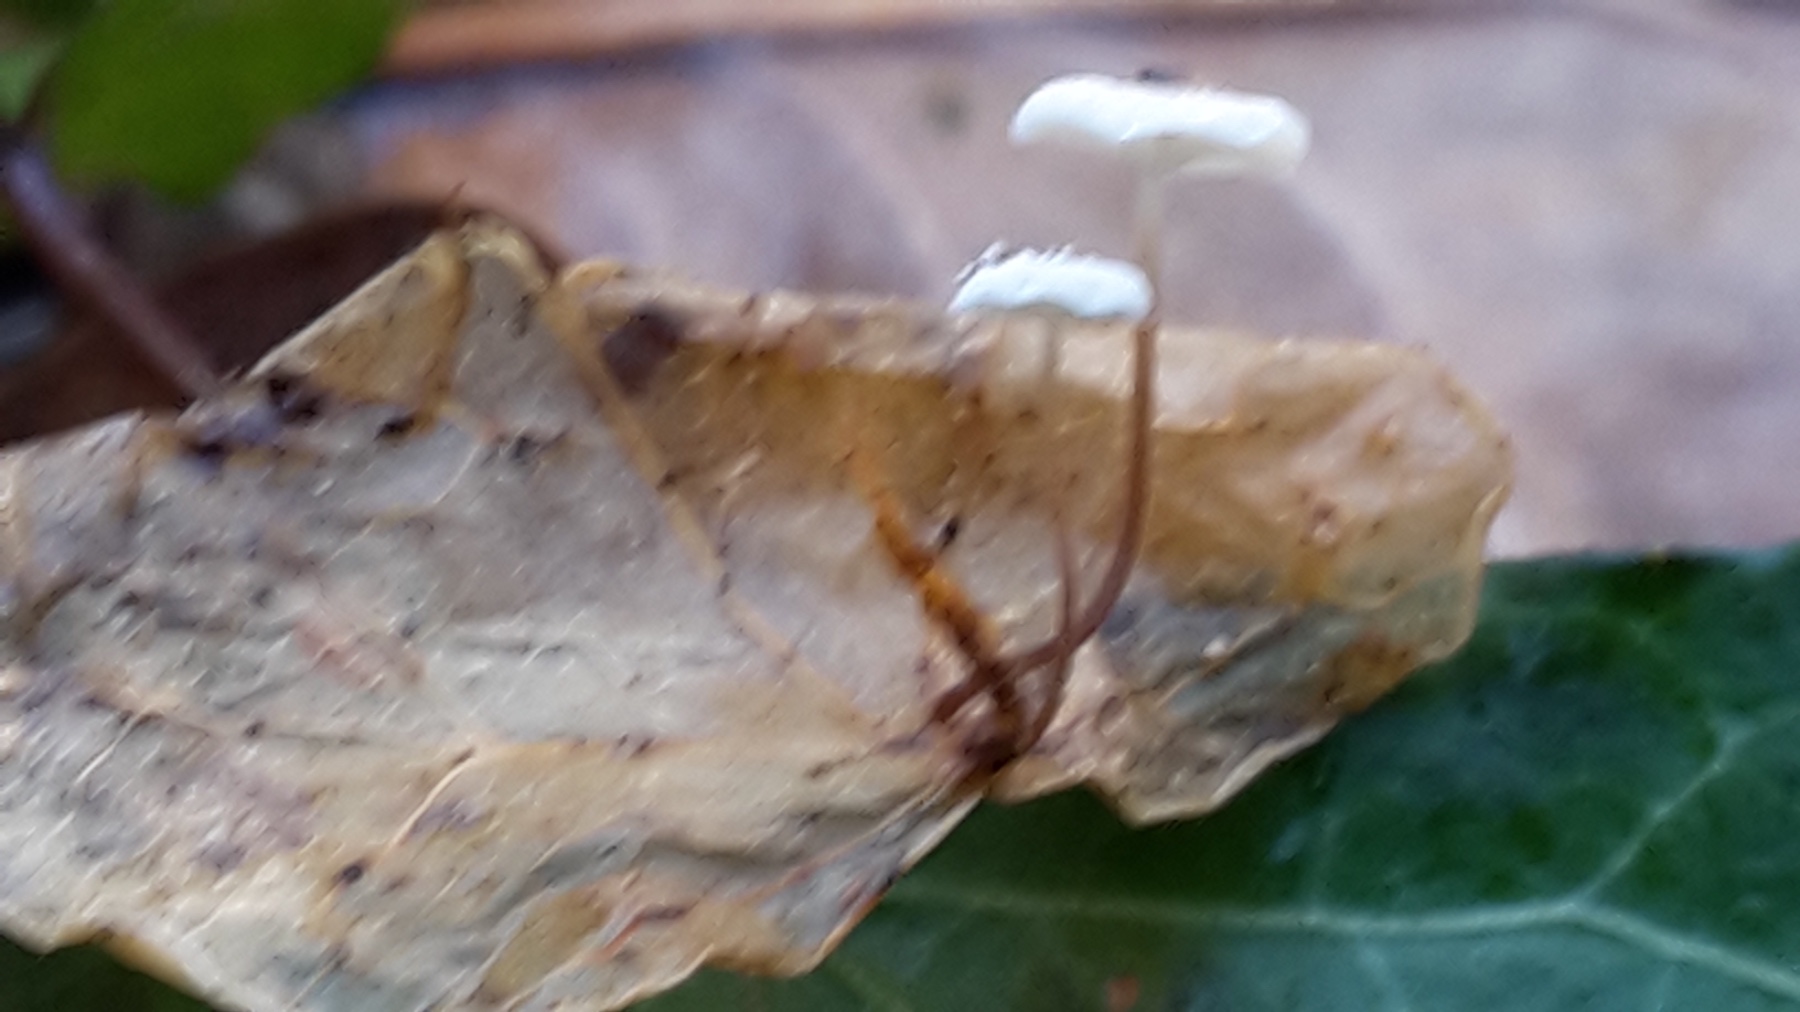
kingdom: Fungi
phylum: Basidiomycota
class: Agaricomycetes
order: Agaricales
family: Marasmiaceae
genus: Marasmius
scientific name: Marasmius epiphylloides
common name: vedbend-bruskhat
